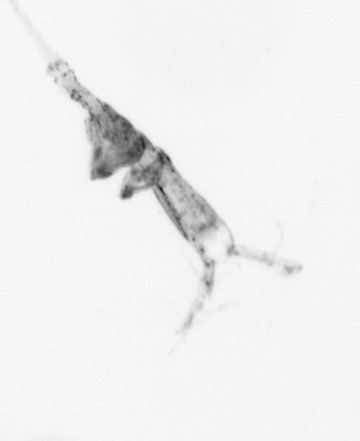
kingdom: Animalia
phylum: Arthropoda
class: Copepoda
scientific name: Copepoda
